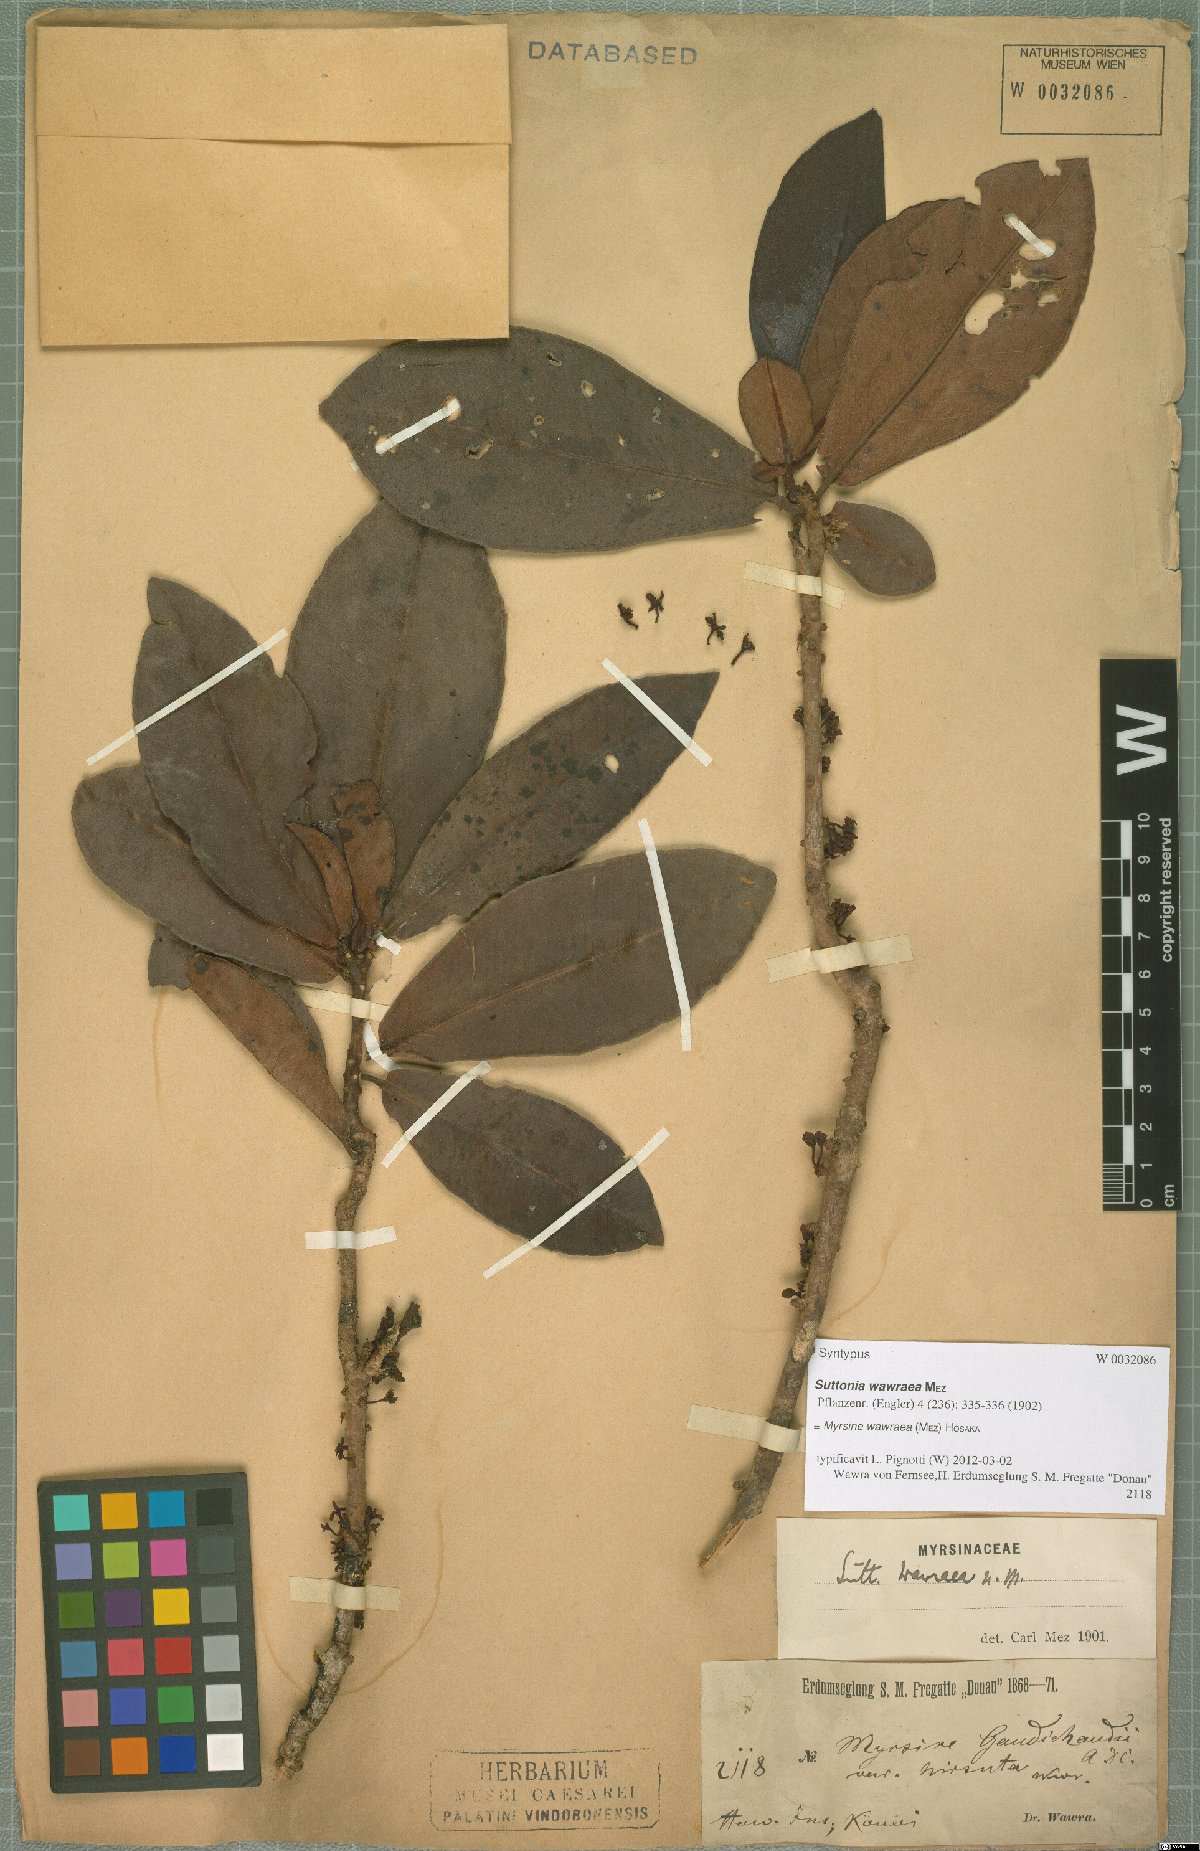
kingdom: Plantae
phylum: Tracheophyta
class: Magnoliopsida
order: Ericales
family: Primulaceae
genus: Myrsine
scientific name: Myrsine wawraea
